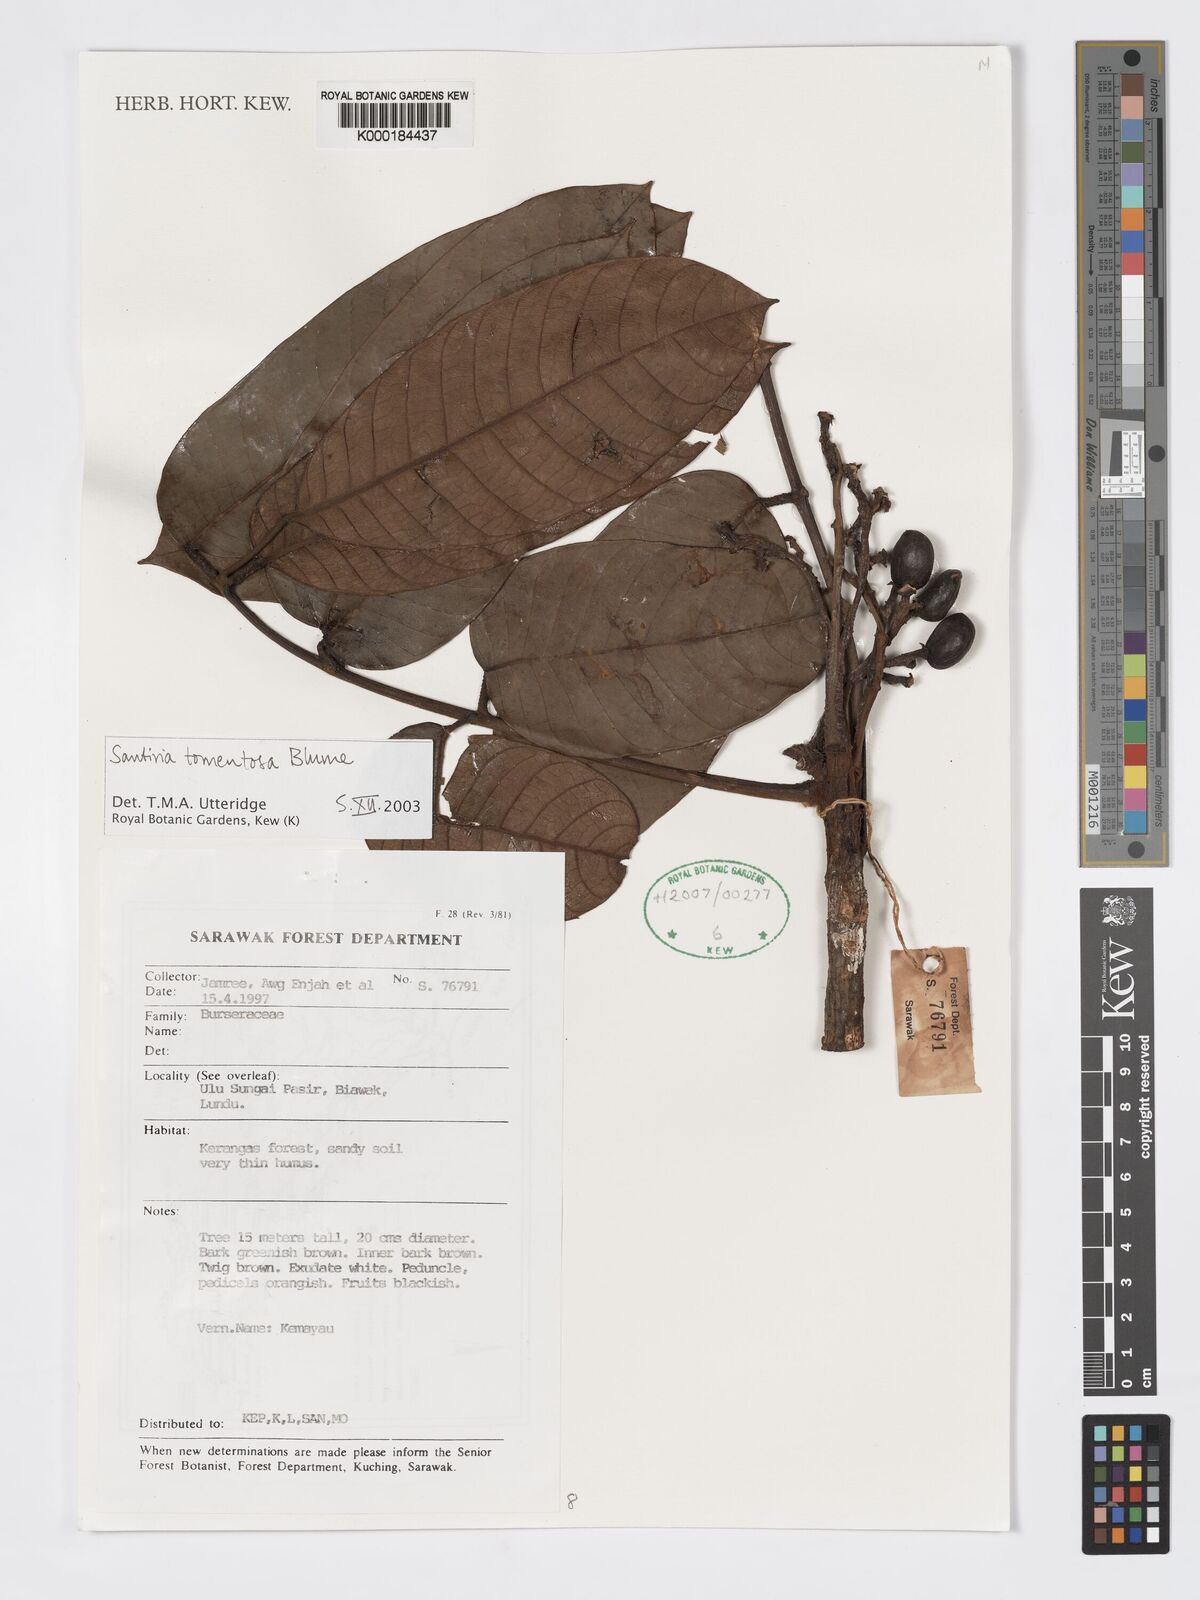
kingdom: Plantae
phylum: Tracheophyta
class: Magnoliopsida
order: Sapindales
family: Burseraceae
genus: Santiria
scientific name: Santiria tomentosa
